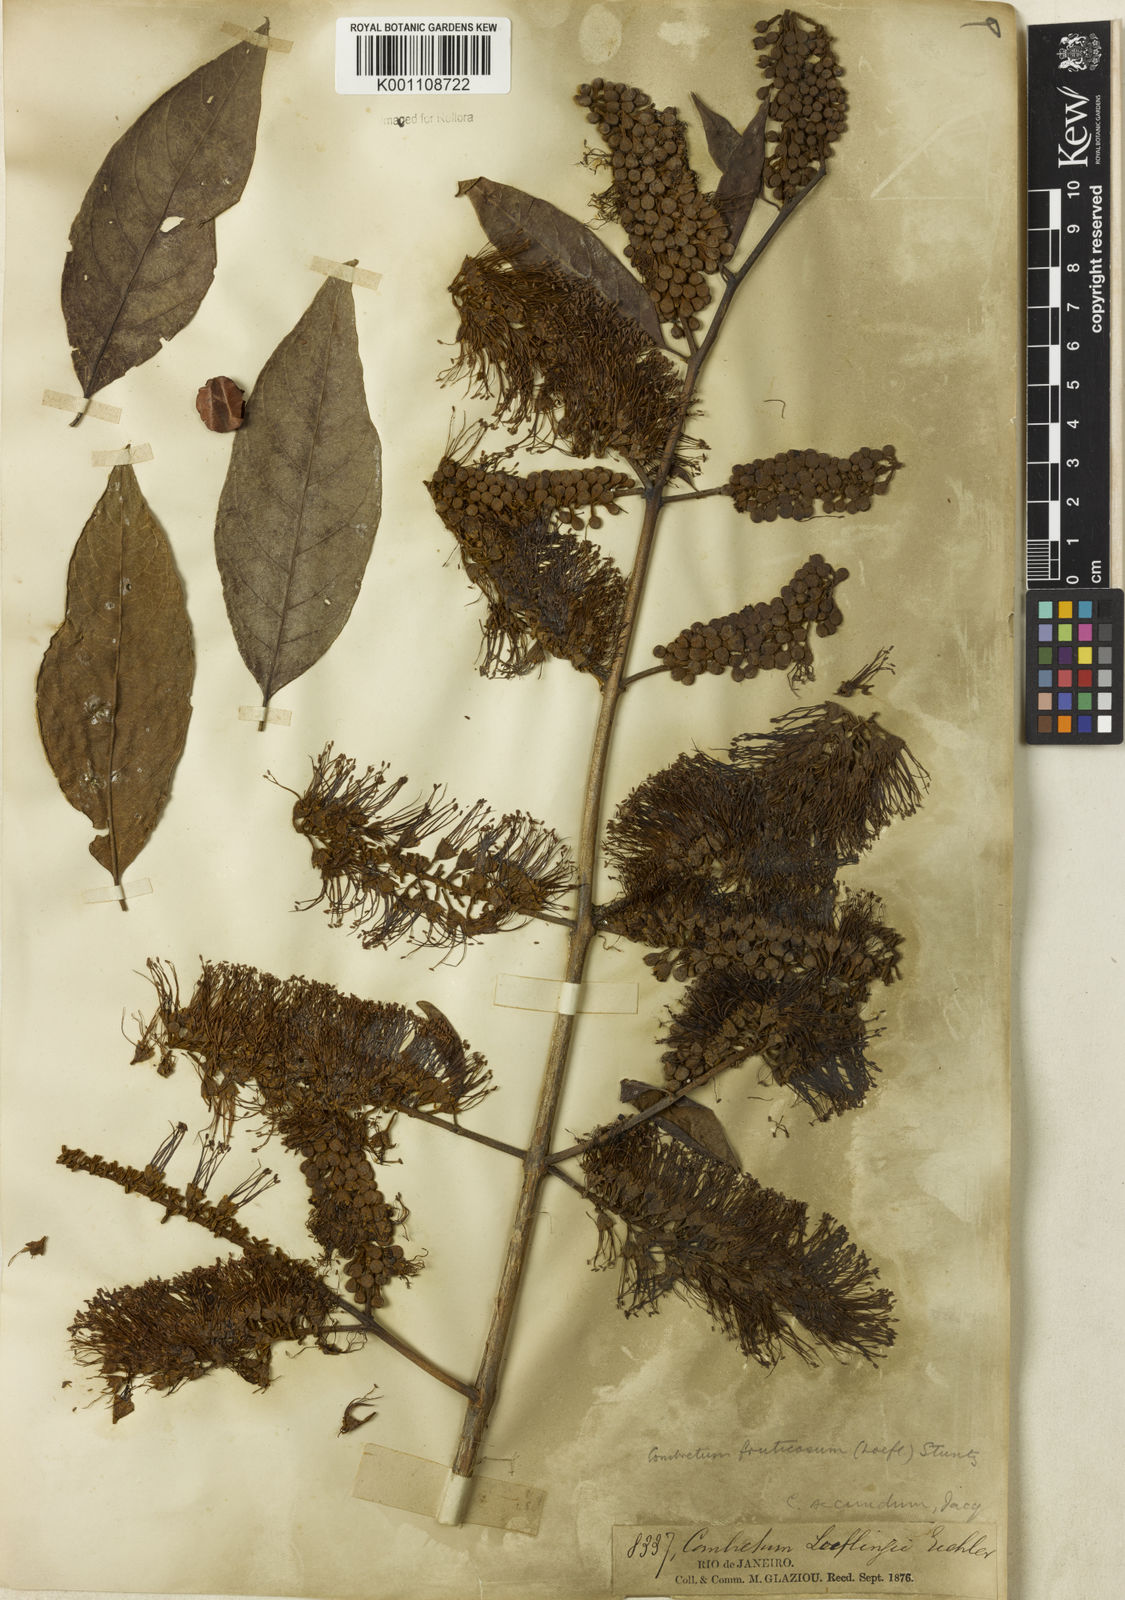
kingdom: Plantae
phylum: Tracheophyta
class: Magnoliopsida
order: Myrtales
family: Combretaceae
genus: Combretum
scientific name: Combretum fruticosum
